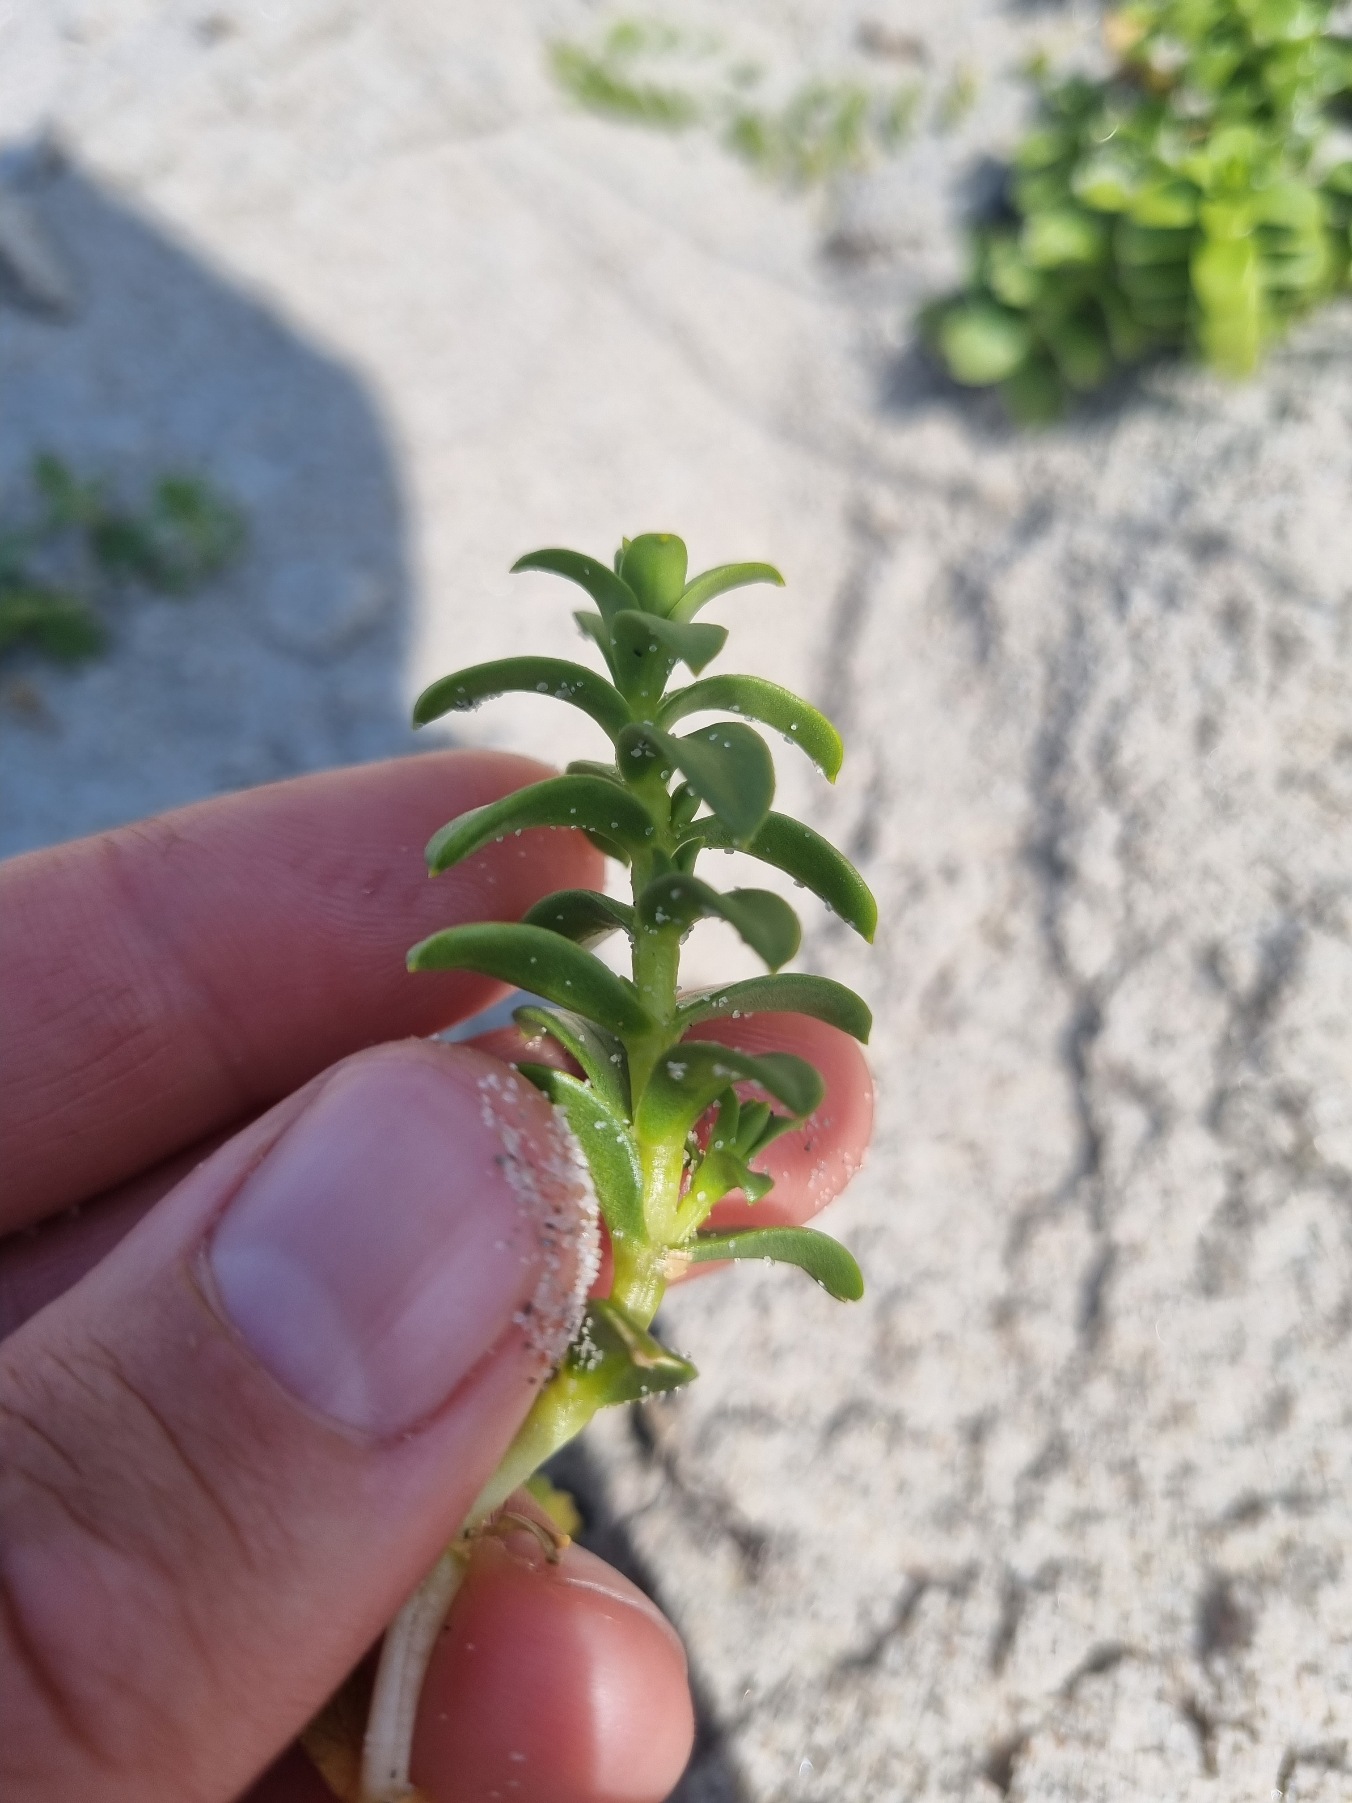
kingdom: Plantae
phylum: Tracheophyta
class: Magnoliopsida
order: Caryophyllales
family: Caryophyllaceae
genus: Honckenya
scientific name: Honckenya peploides
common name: Strandarve
